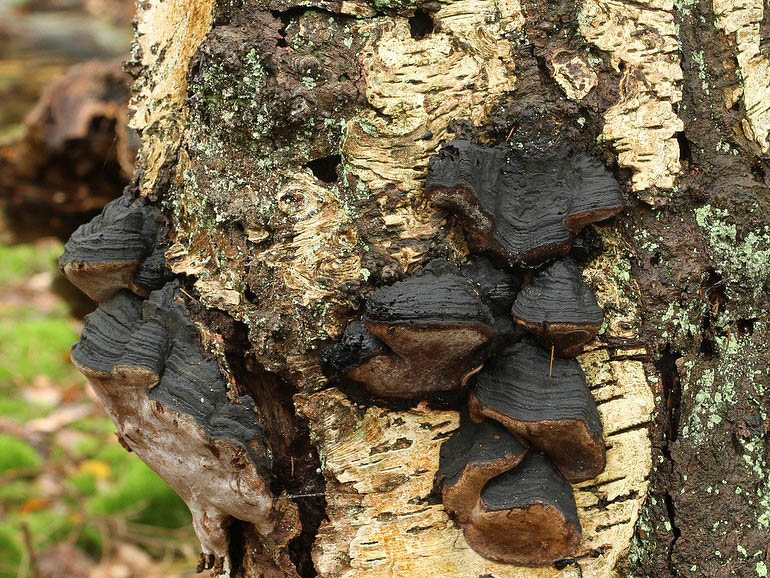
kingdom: Fungi
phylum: Basidiomycota
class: Agaricomycetes
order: Hymenochaetales
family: Hymenochaetaceae
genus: Phellinus
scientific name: Phellinus lundellii
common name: birke-ildporesvamp
